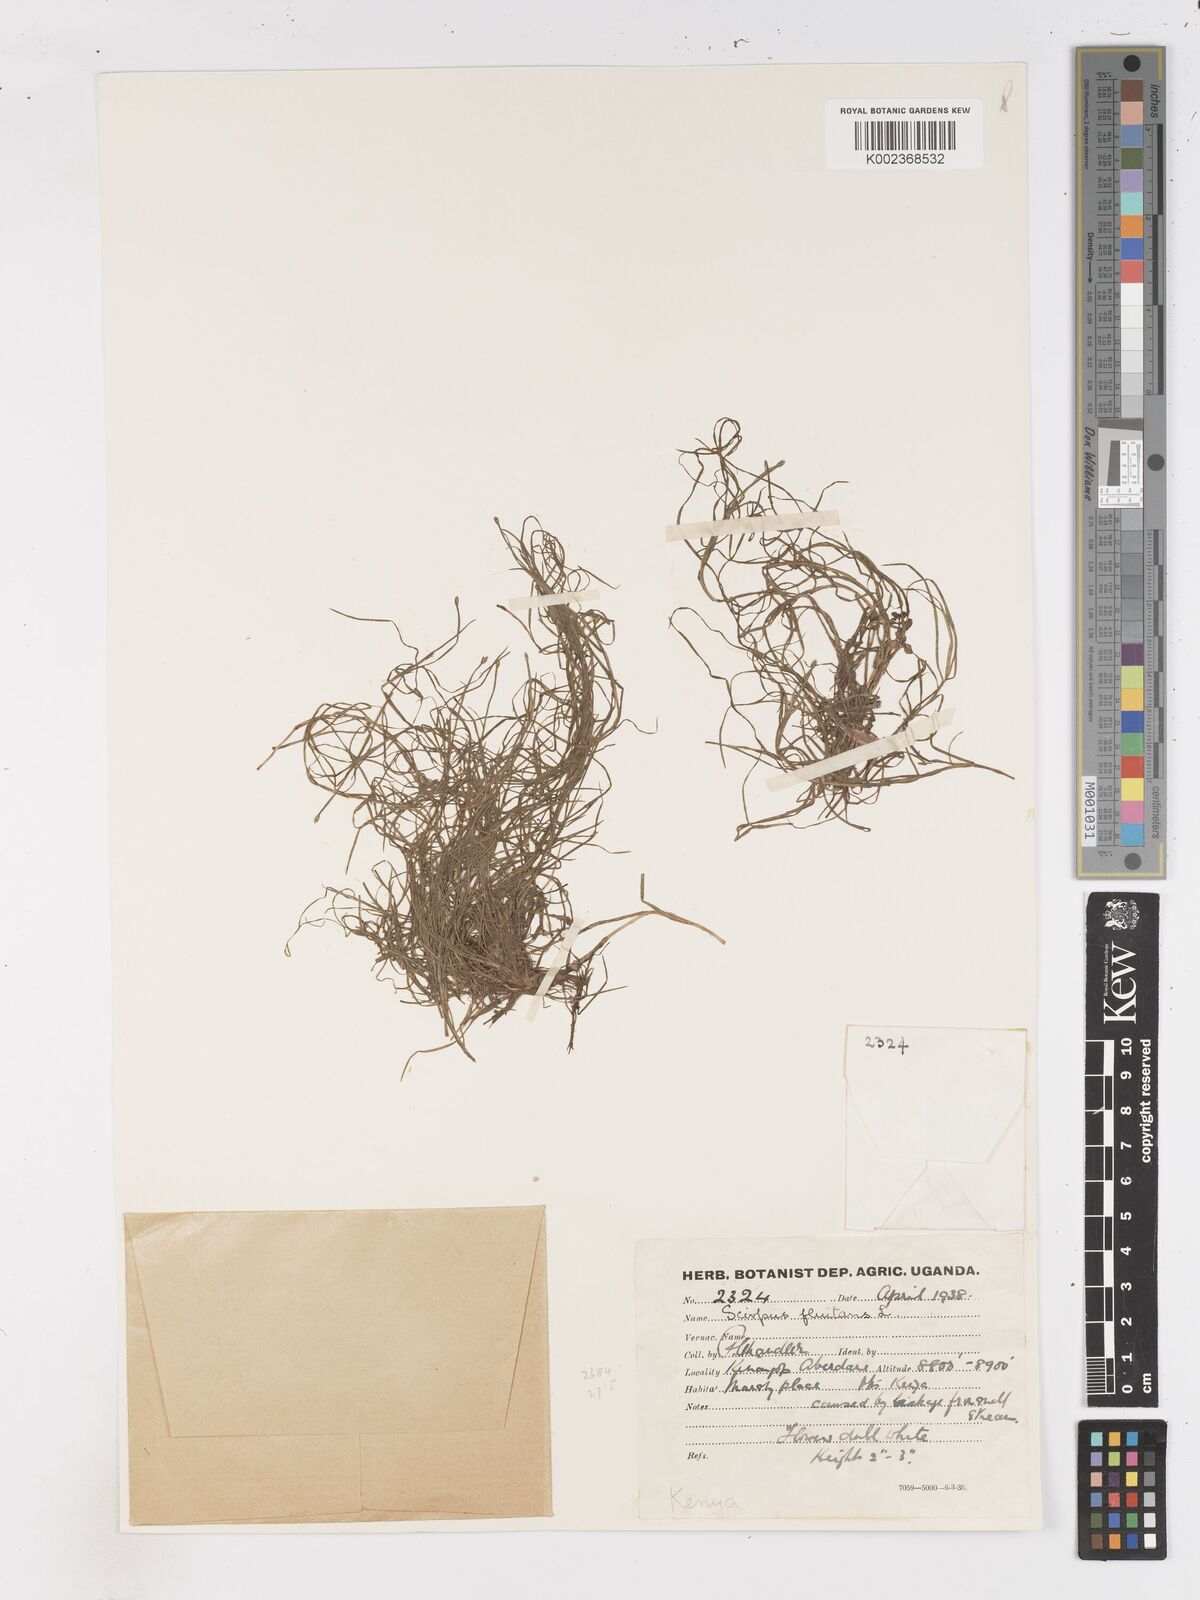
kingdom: Plantae
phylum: Tracheophyta
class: Liliopsida
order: Poales
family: Cyperaceae
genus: Isolepis
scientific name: Isolepis fluitans
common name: Floating club-rush
